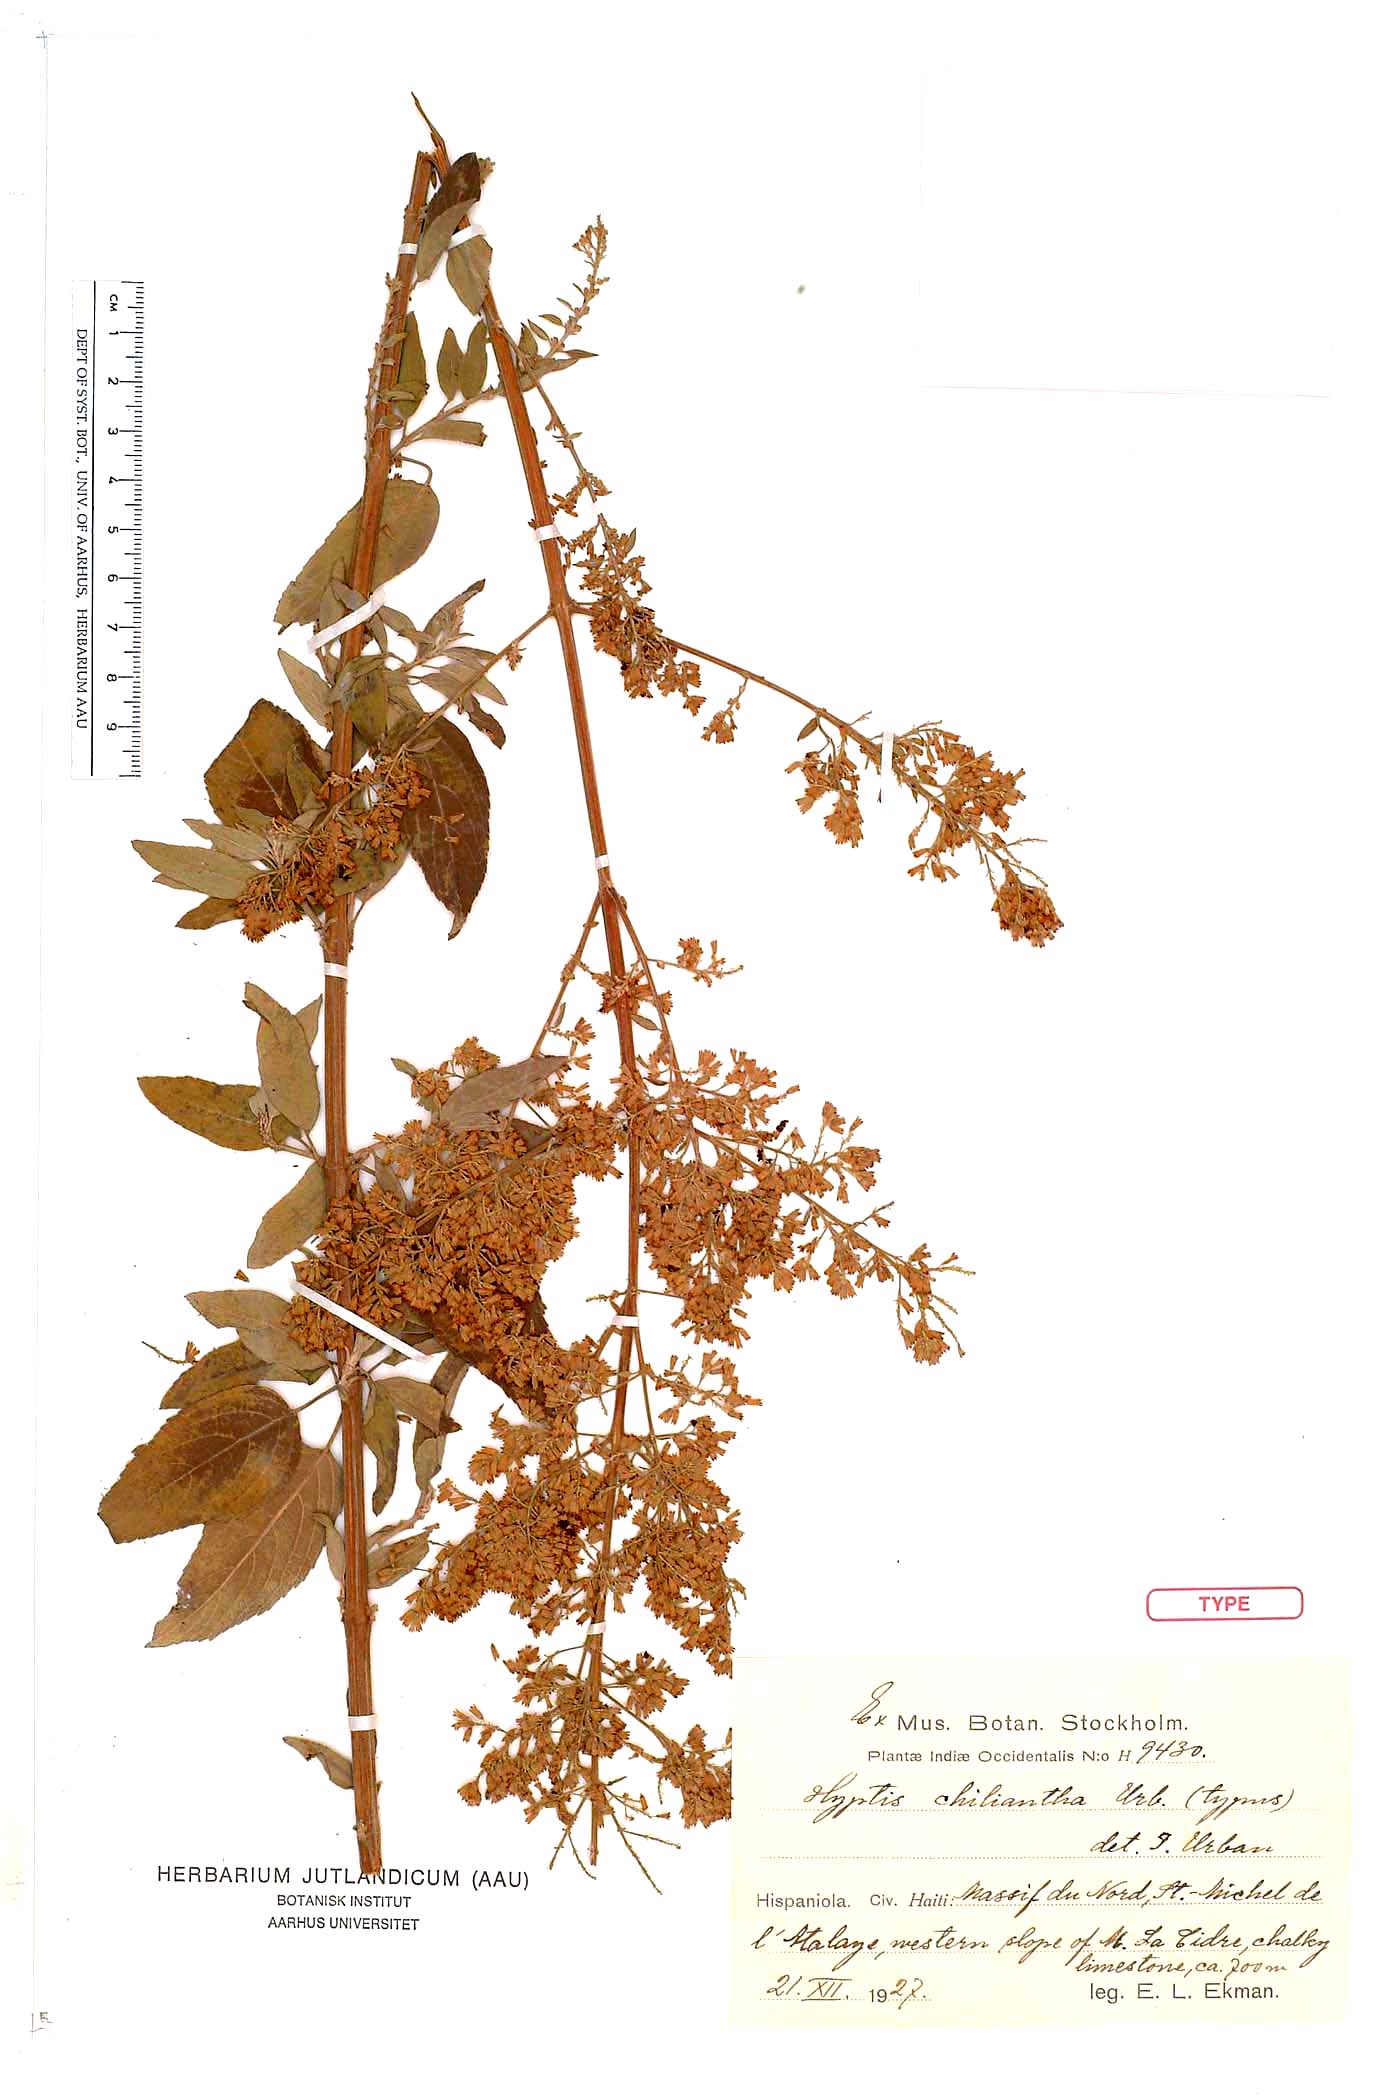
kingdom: Plantae
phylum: Tracheophyta
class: Magnoliopsida
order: Lamiales
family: Lamiaceae
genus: Condea
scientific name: Condea chyliantha
